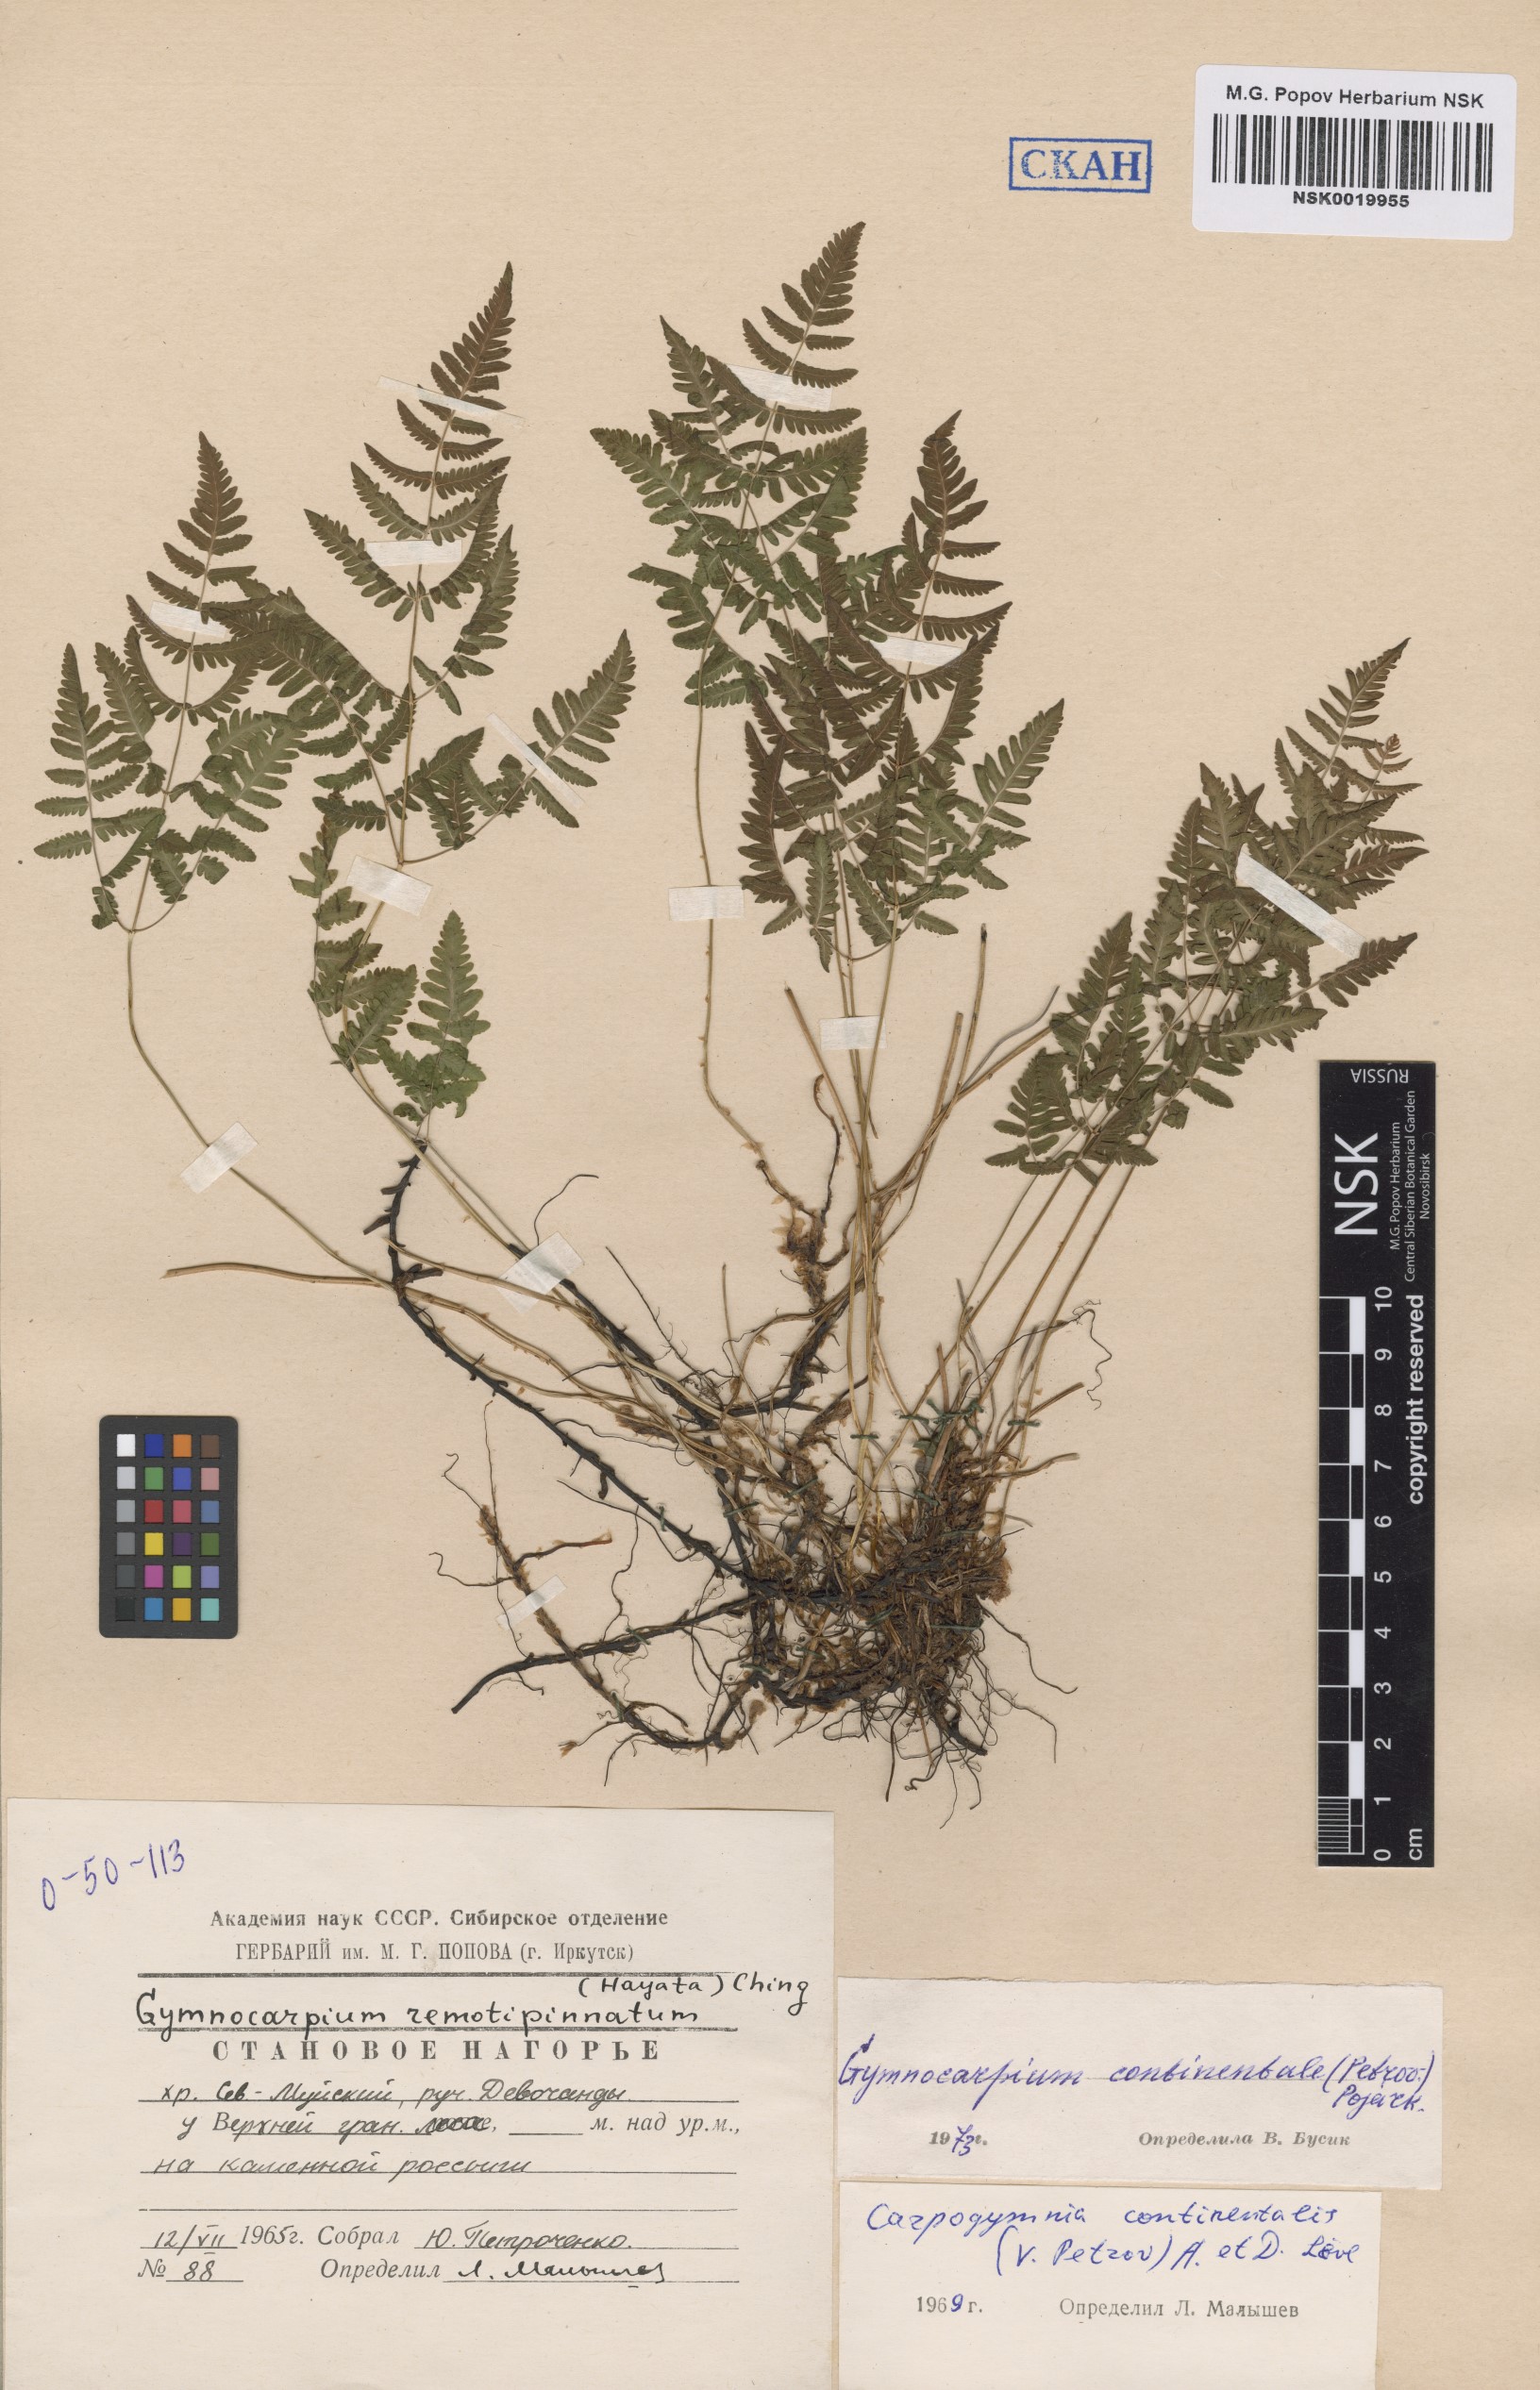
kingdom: Plantae
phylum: Tracheophyta
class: Polypodiopsida
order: Polypodiales
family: Cystopteridaceae
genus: Gymnocarpium
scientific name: Gymnocarpium continentale
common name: Asian oak fern
